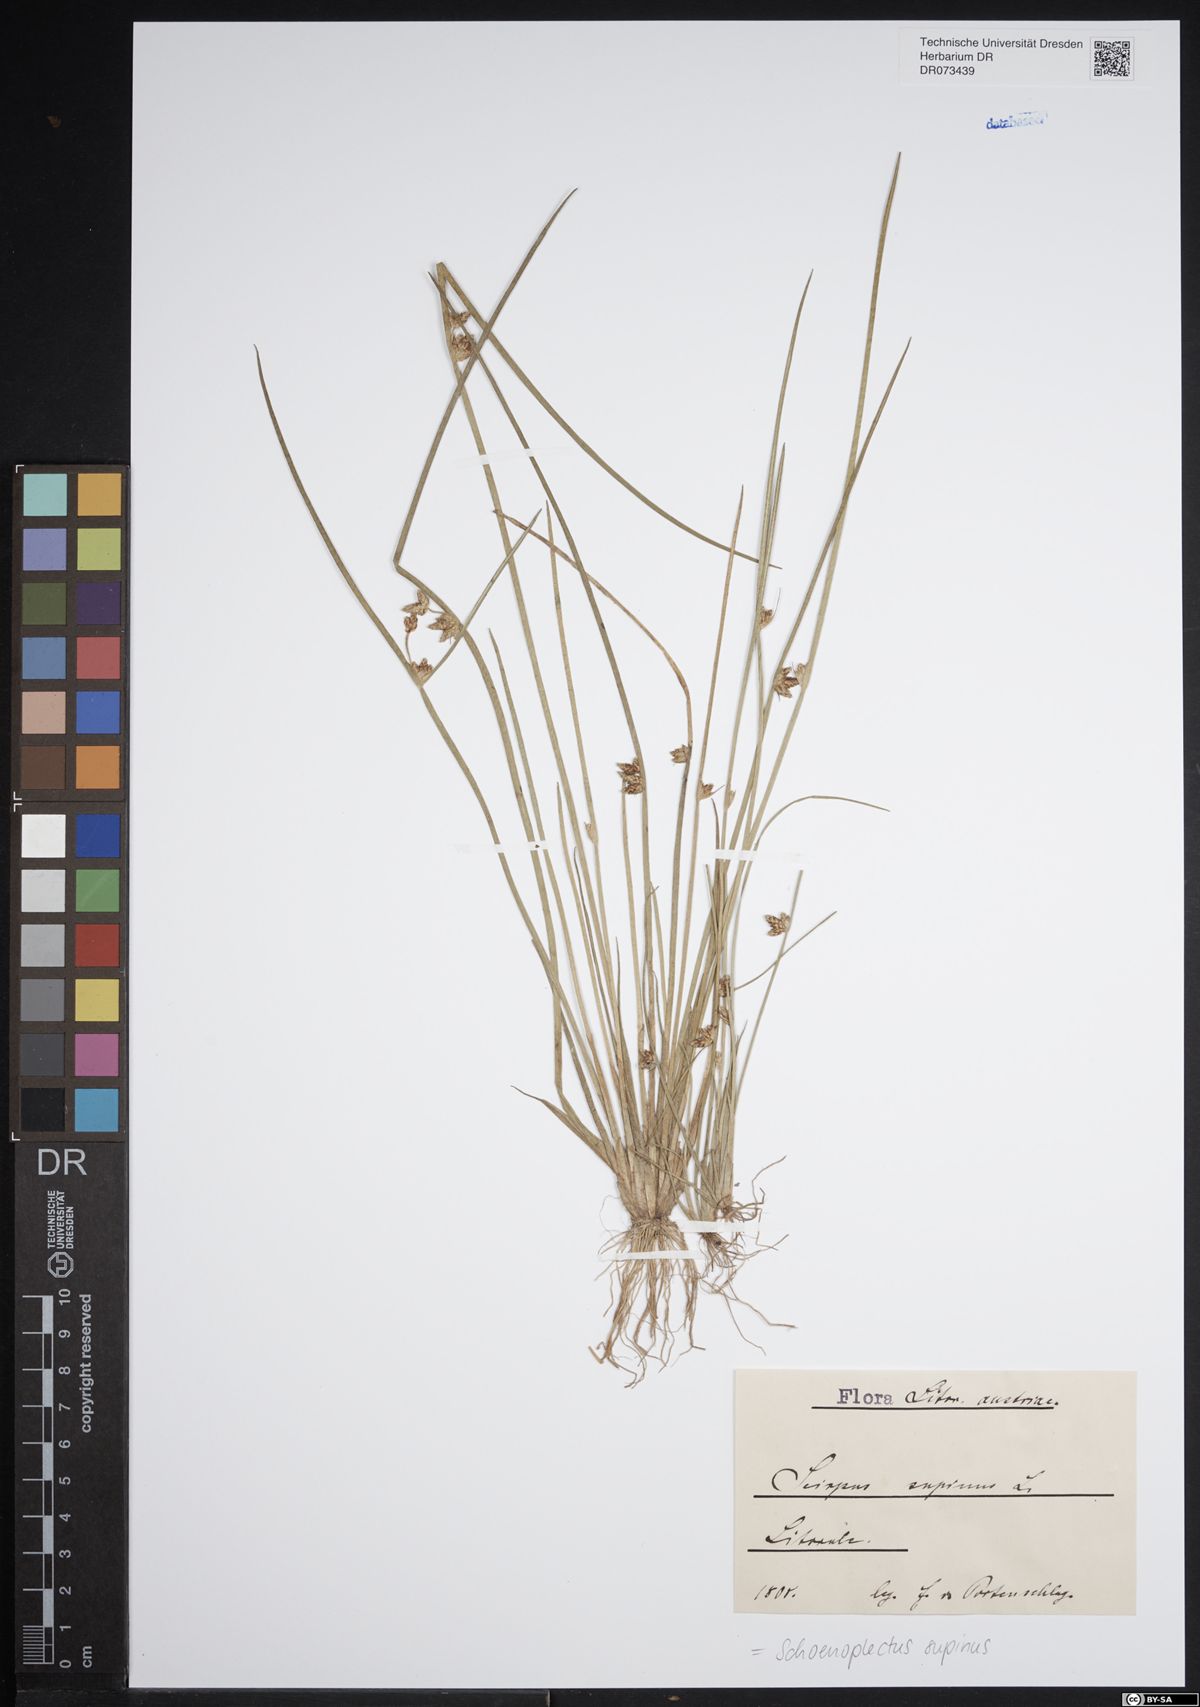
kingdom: Plantae
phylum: Tracheophyta
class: Liliopsida
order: Poales
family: Cyperaceae
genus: Schoenoplectiella
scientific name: Schoenoplectiella supina
